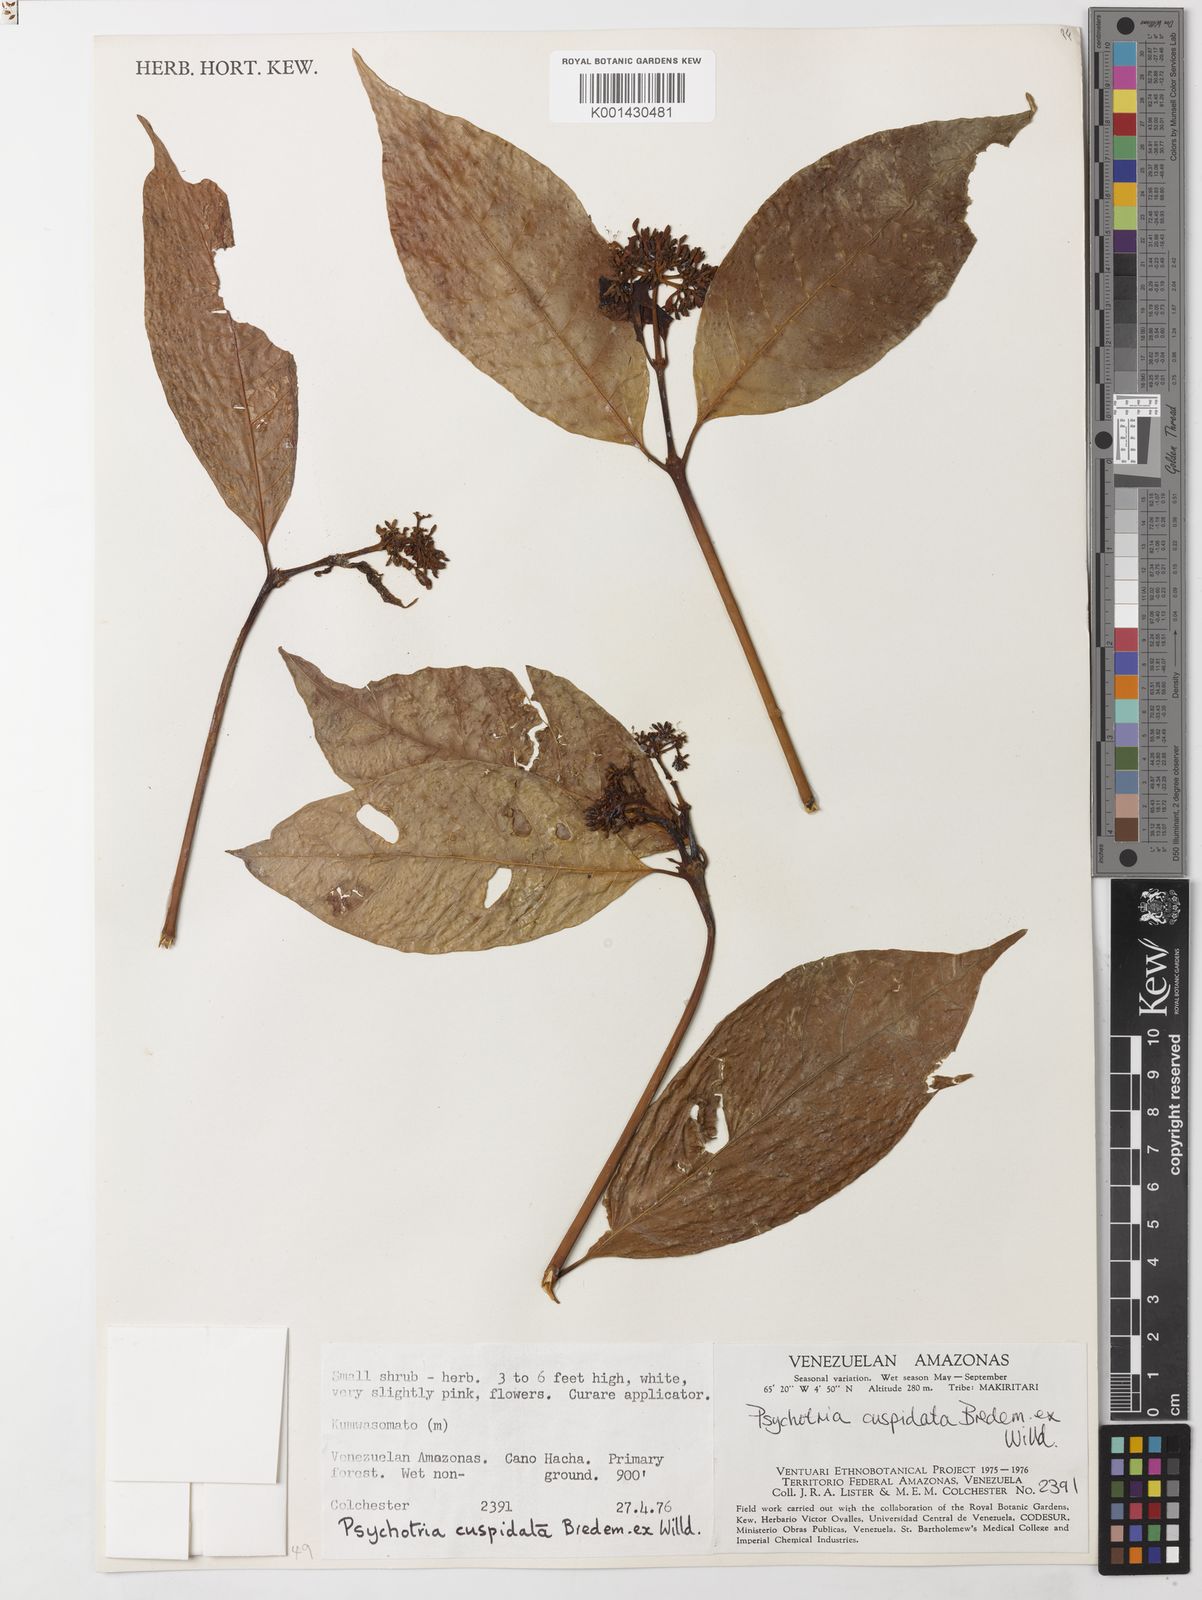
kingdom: Plantae
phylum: Tracheophyta
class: Magnoliopsida
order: Gentianales
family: Rubiaceae
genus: Palicourea
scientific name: Palicourea cuspidata
